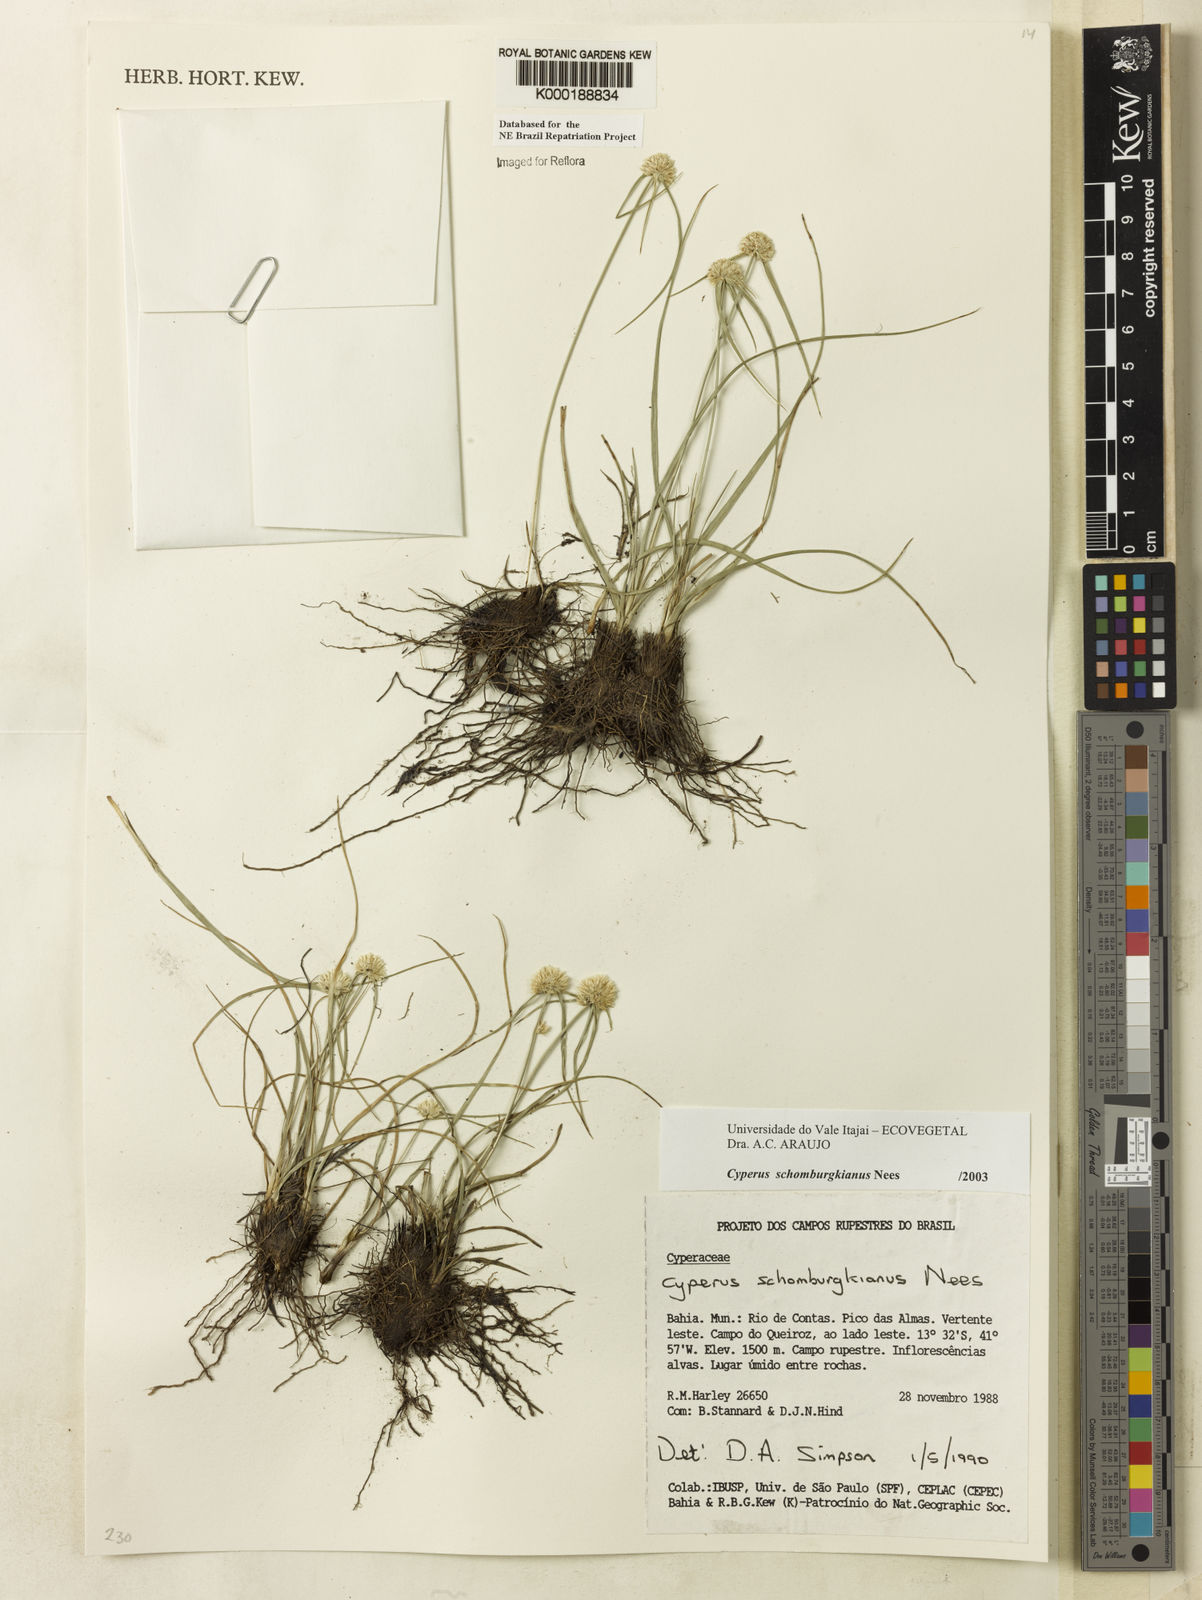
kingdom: Plantae
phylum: Tracheophyta
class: Liliopsida
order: Poales
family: Cyperaceae
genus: Cyperus
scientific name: Cyperus schomburgkianus
